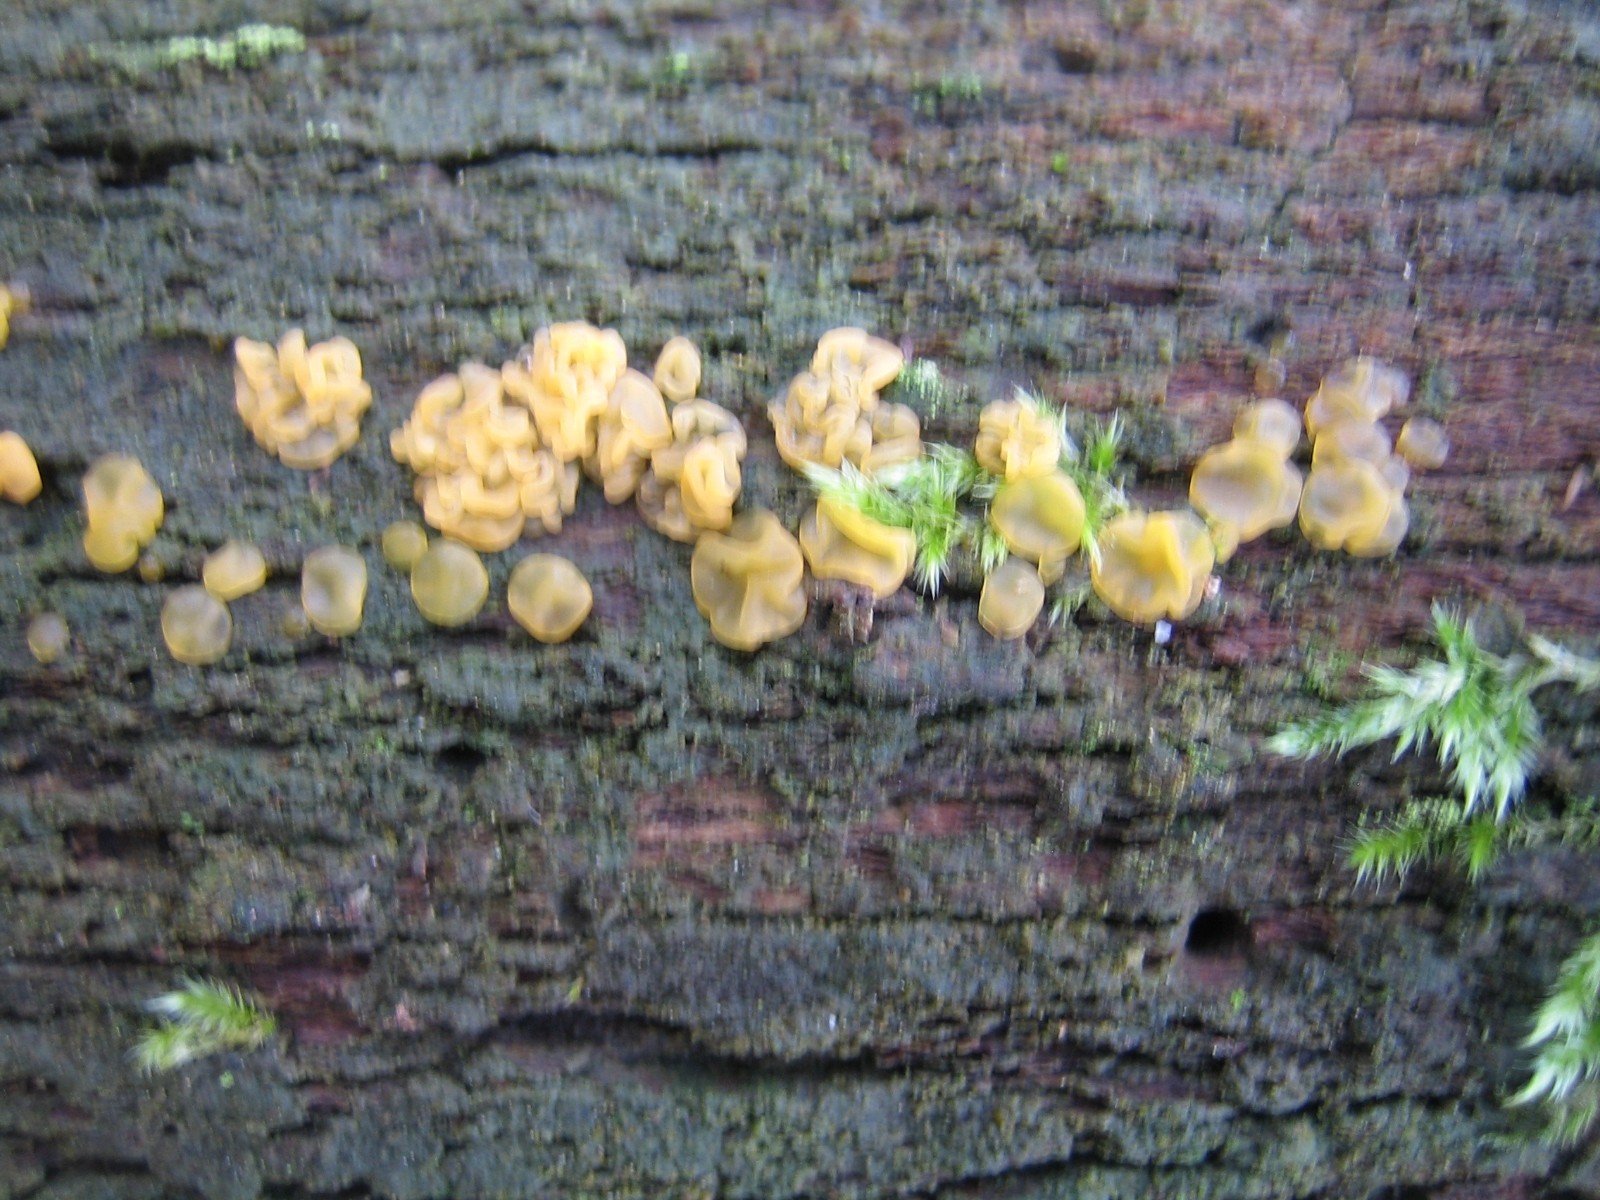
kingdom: Fungi
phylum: Basidiomycota
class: Dacrymycetes
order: Dacrymycetales
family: Dacrymycetaceae
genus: Dacrymyces
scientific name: Dacrymyces lacrymalis
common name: rynket tåresvamp
